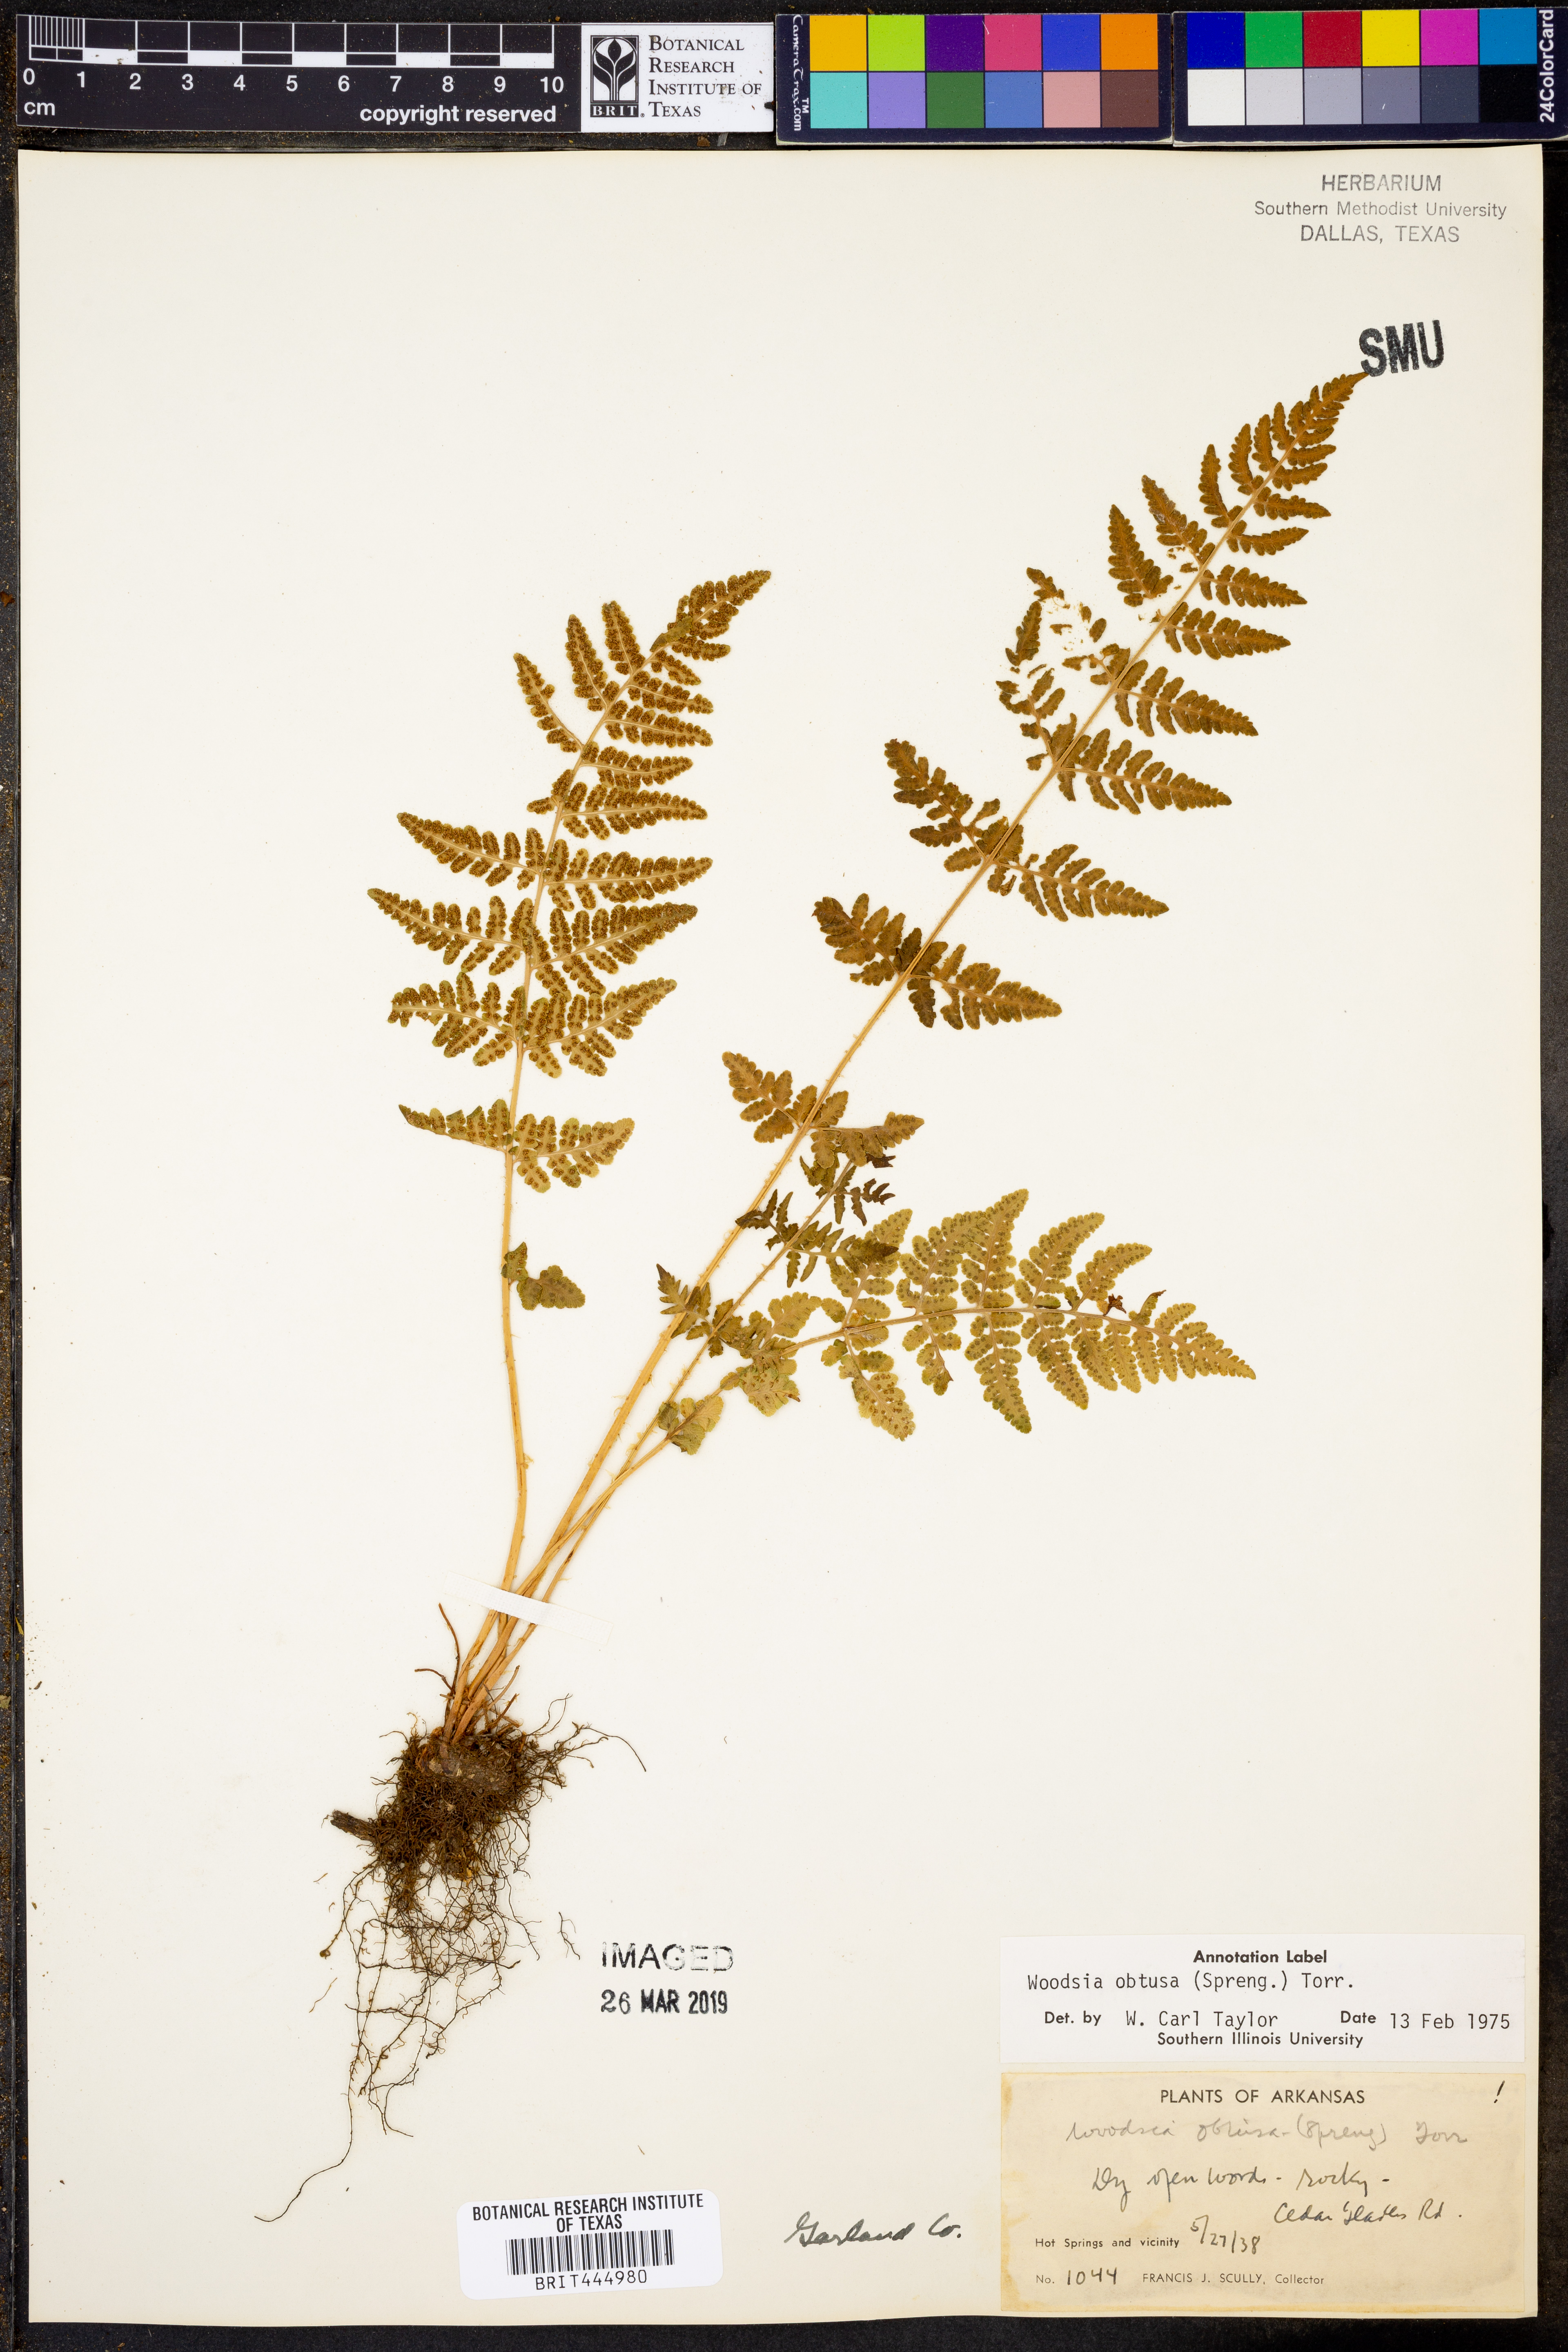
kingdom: Plantae
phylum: Tracheophyta
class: Polypodiopsida
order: Polypodiales
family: Woodsiaceae
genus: Physematium
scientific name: Physematium obtusum
